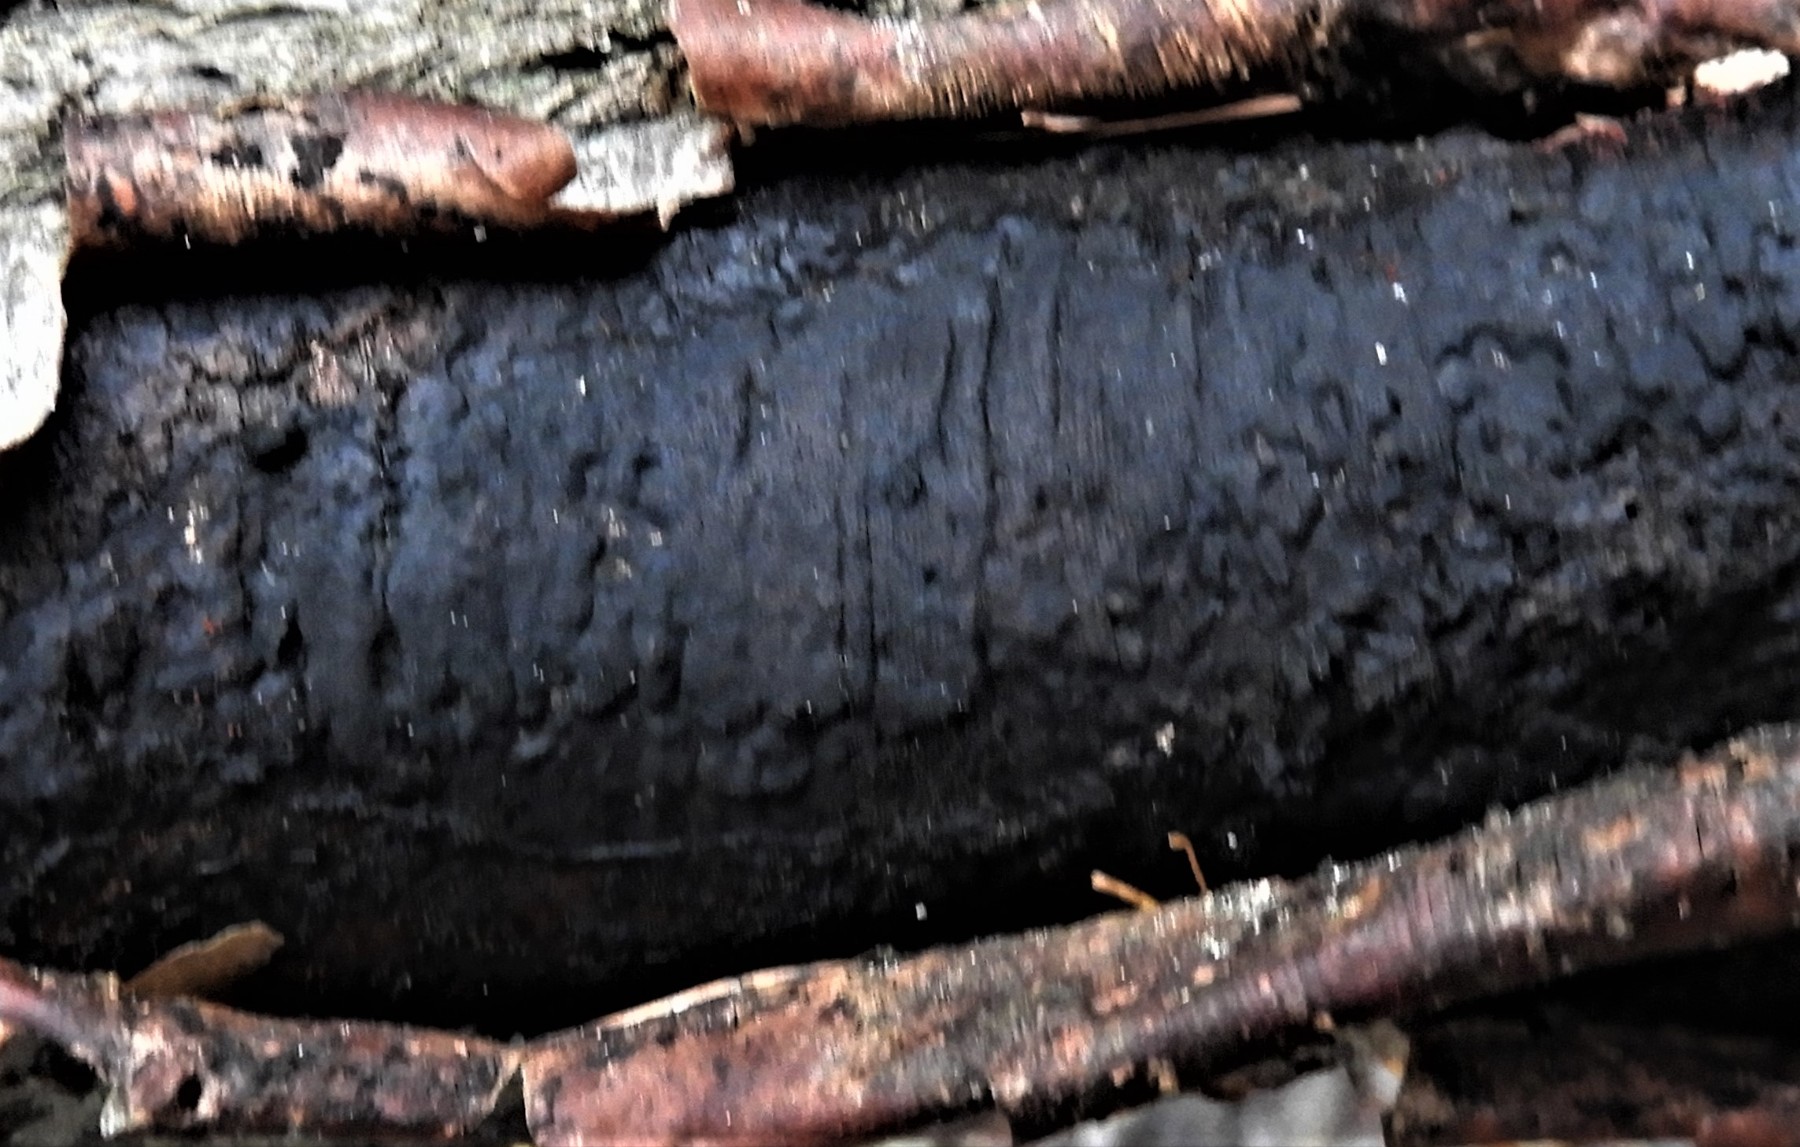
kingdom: Fungi
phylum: Ascomycota
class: Sordariomycetes
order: Xylariales
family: Diatrypaceae
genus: Diatrype
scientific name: Diatrype decorticata
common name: barksprænger-kulskorpe
